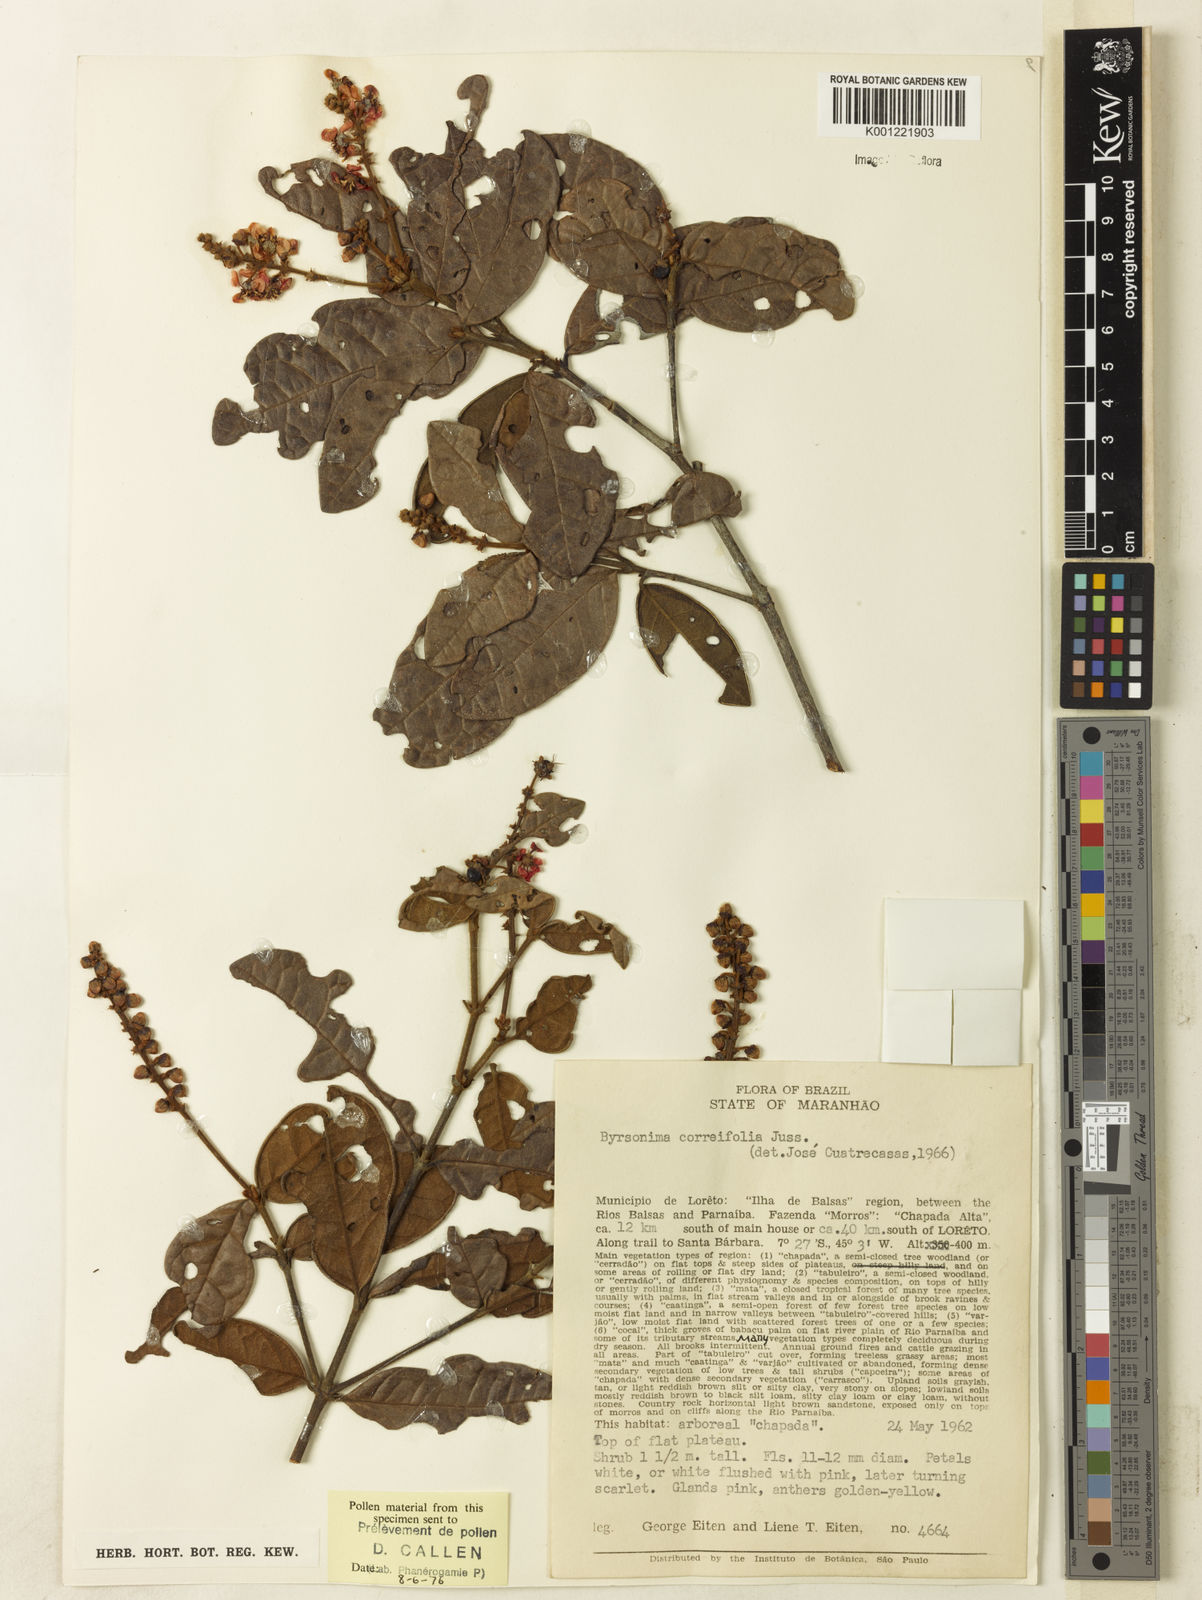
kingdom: Plantae
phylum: Tracheophyta
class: Magnoliopsida
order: Malpighiales
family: Malpighiaceae
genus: Byrsonima
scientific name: Byrsonima correifolia
